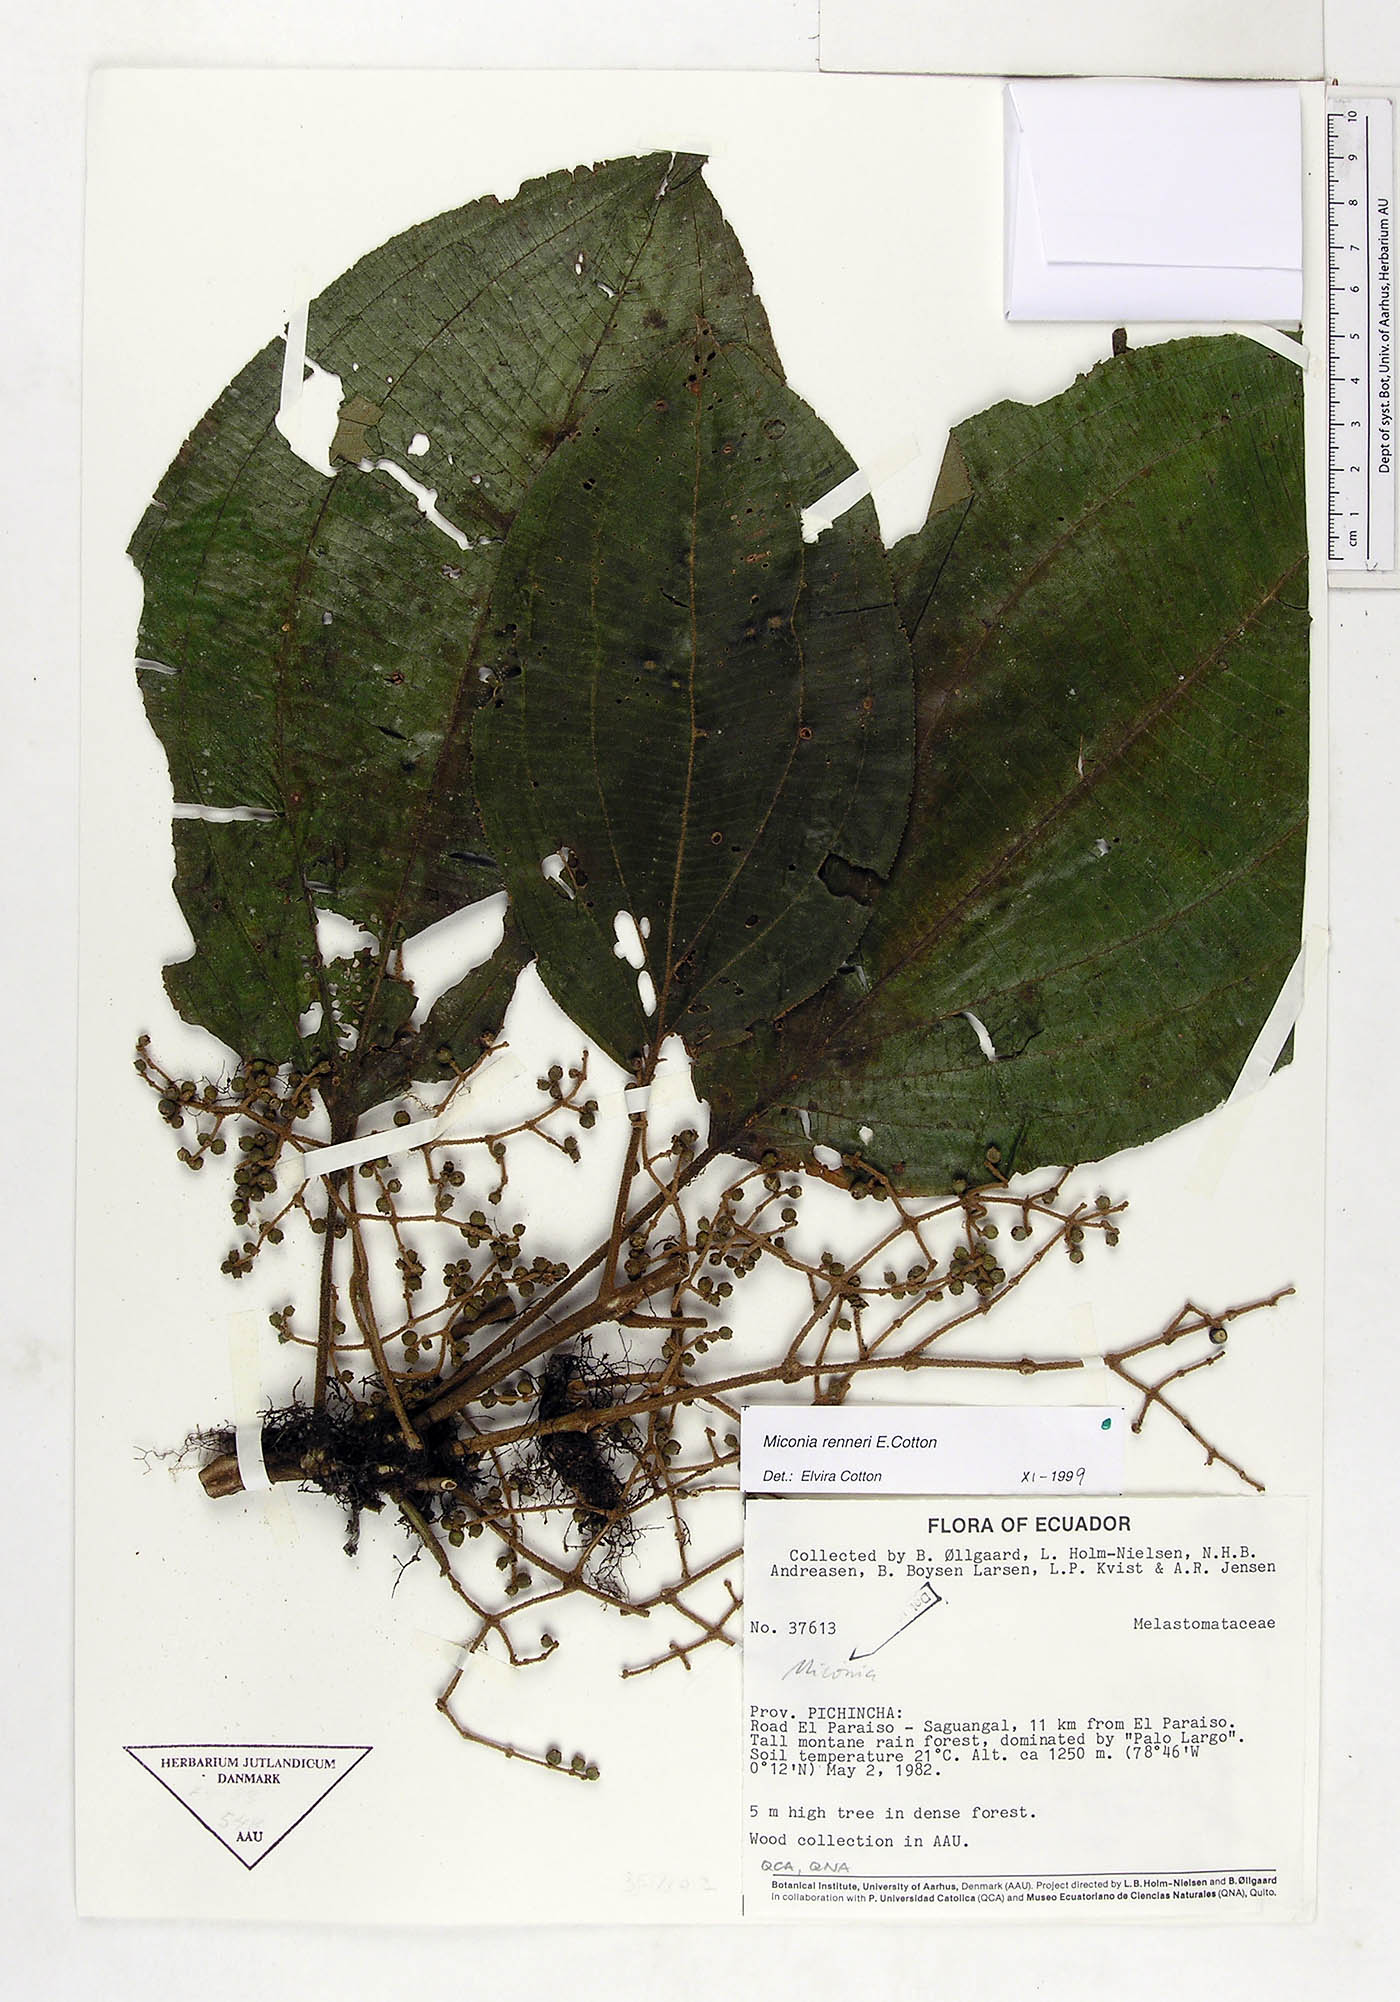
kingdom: Plantae
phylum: Tracheophyta
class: Magnoliopsida
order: Myrtales
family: Melastomataceae
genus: Miconia
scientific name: Miconia renneri
